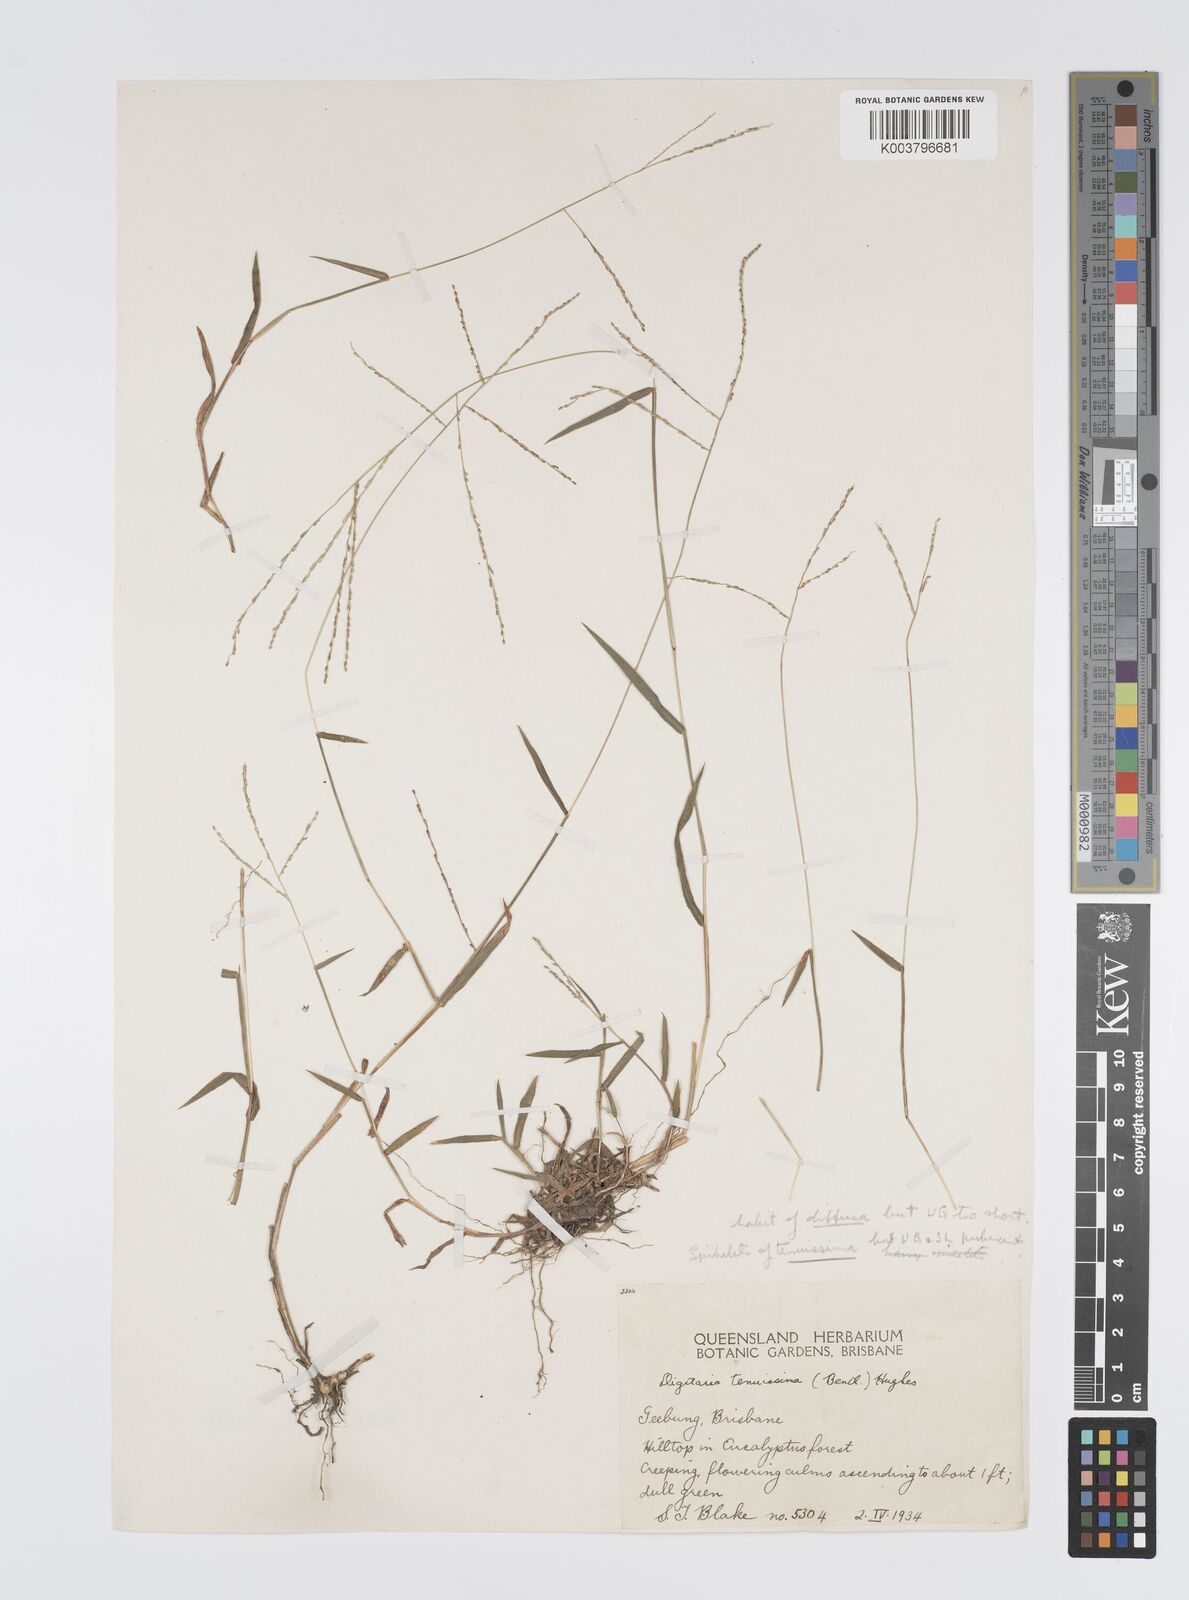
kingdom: Plantae
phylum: Tracheophyta
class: Liliopsida
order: Poales
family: Poaceae
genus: Digitaria
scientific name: Digitaria ramularis
